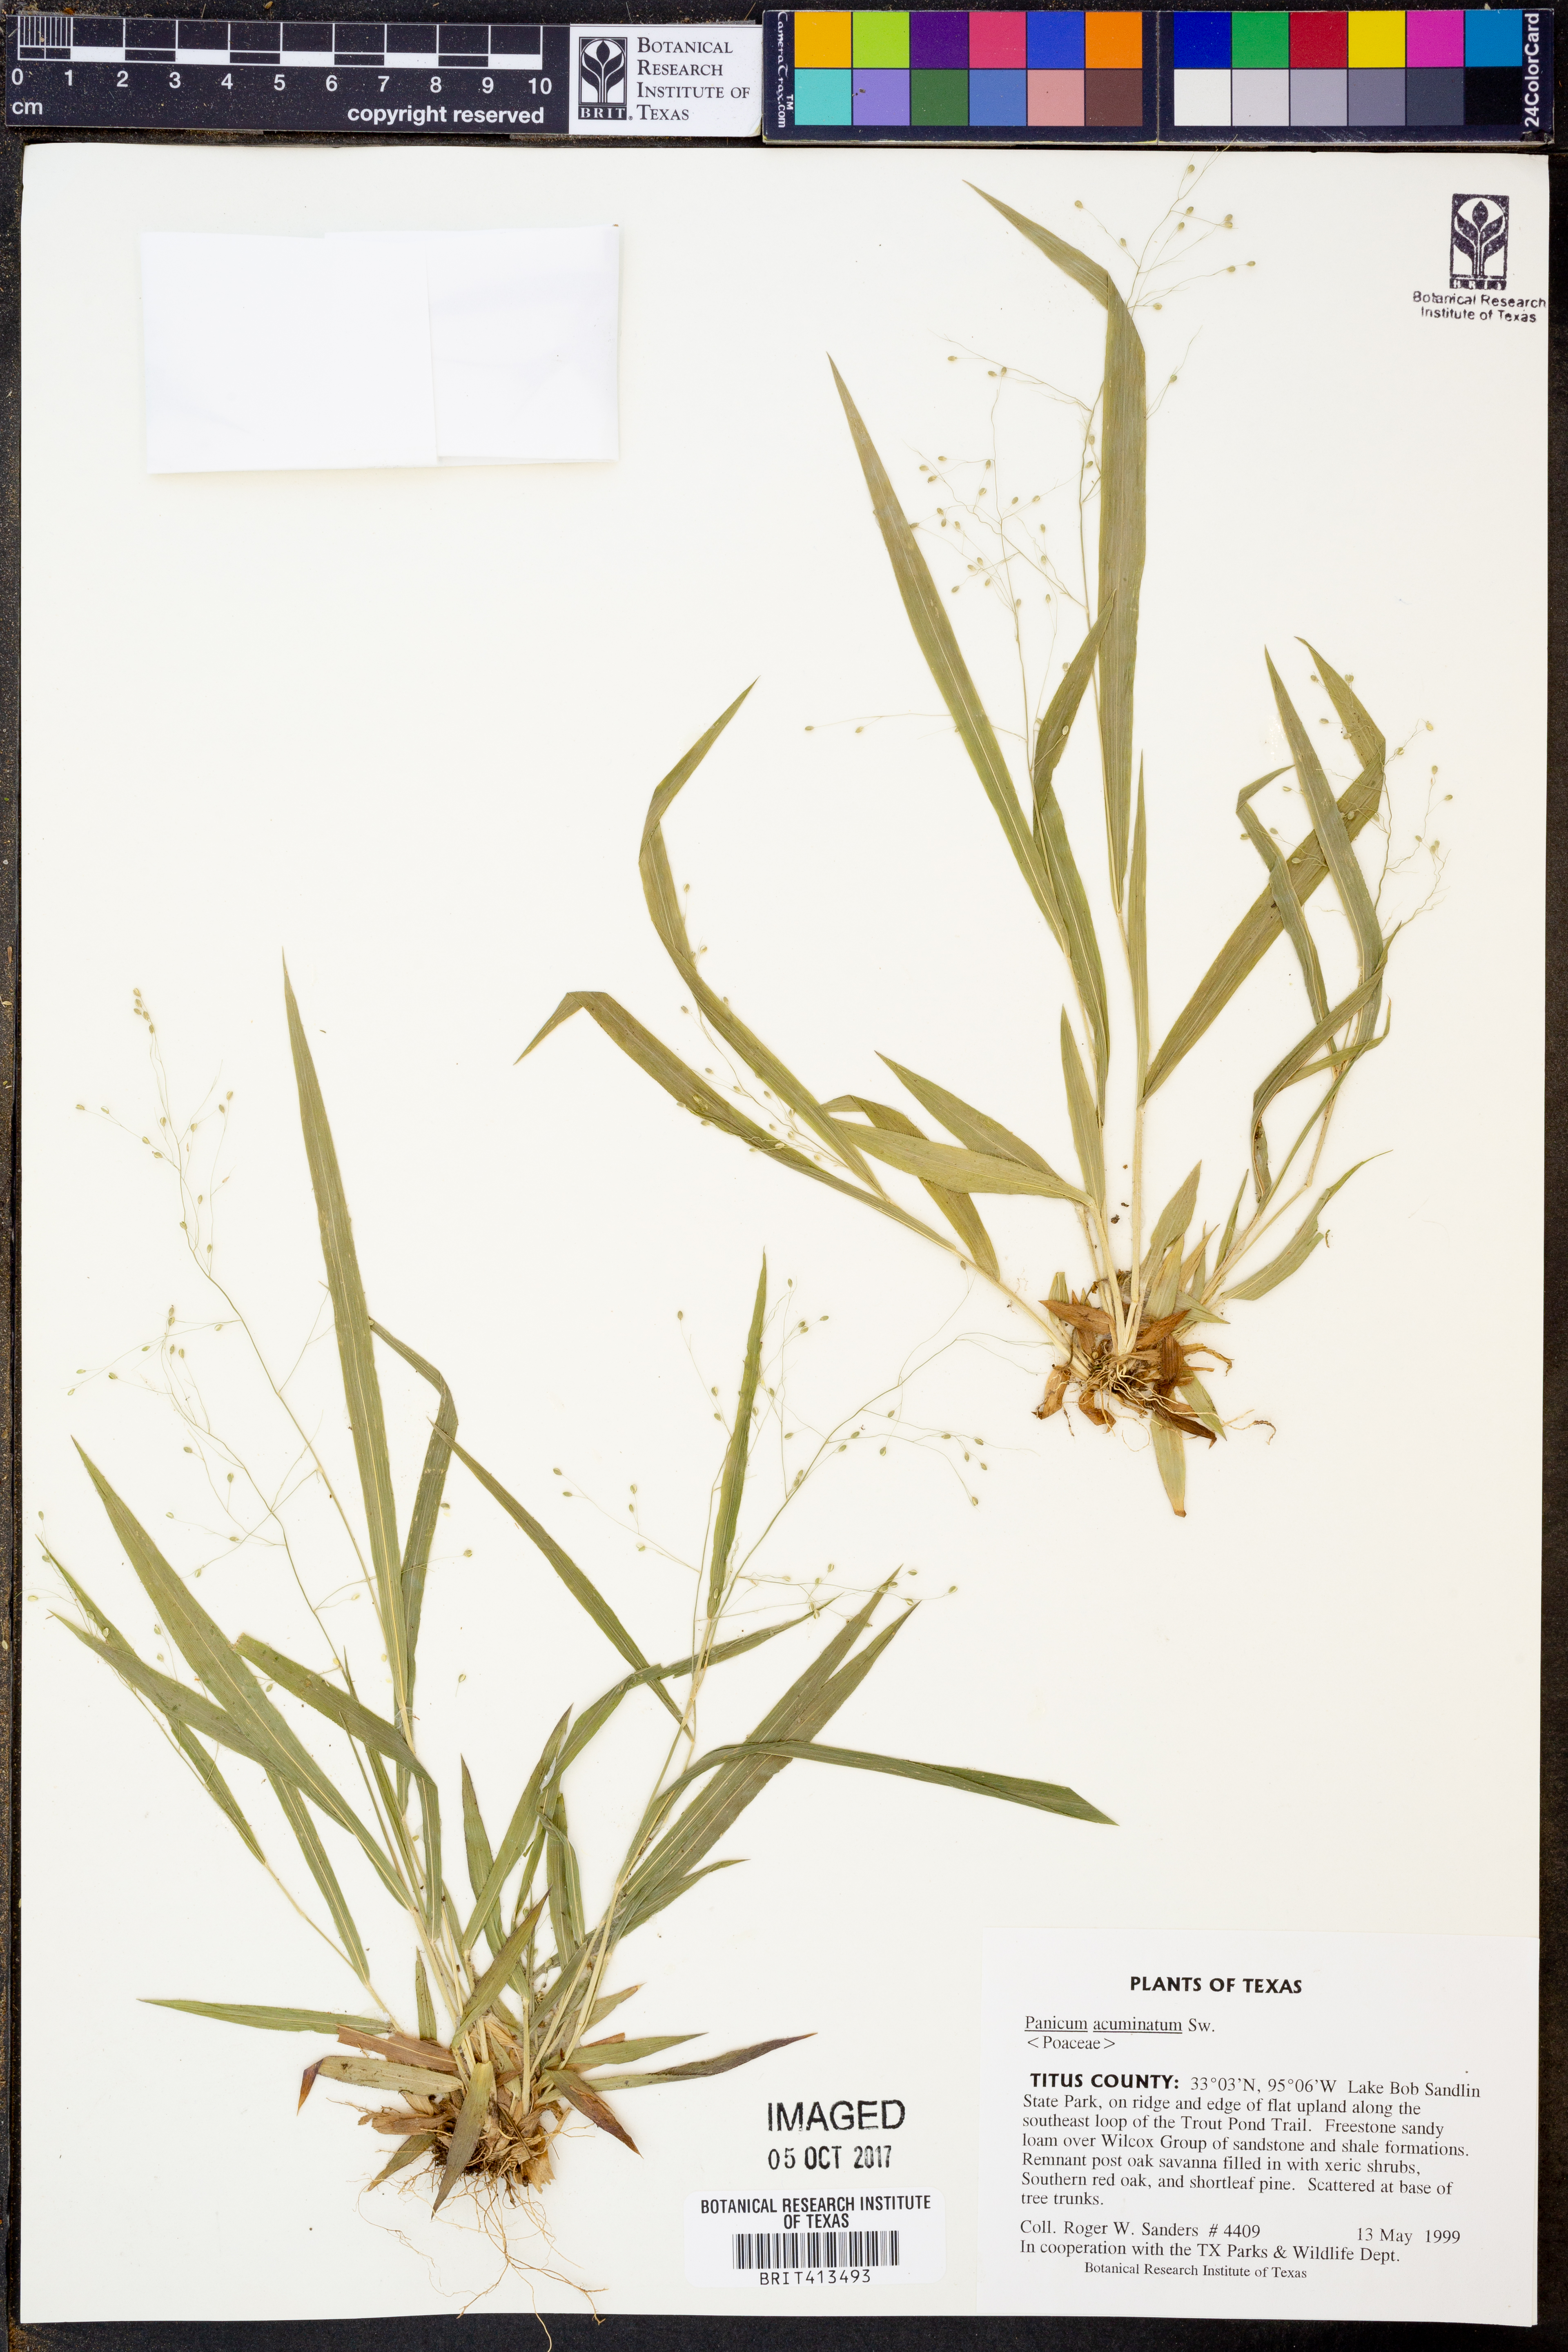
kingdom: Plantae
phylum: Tracheophyta
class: Liliopsida
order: Poales
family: Poaceae
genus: Dichanthelium
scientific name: Dichanthelium acuminatum
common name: Hairy panic grass
